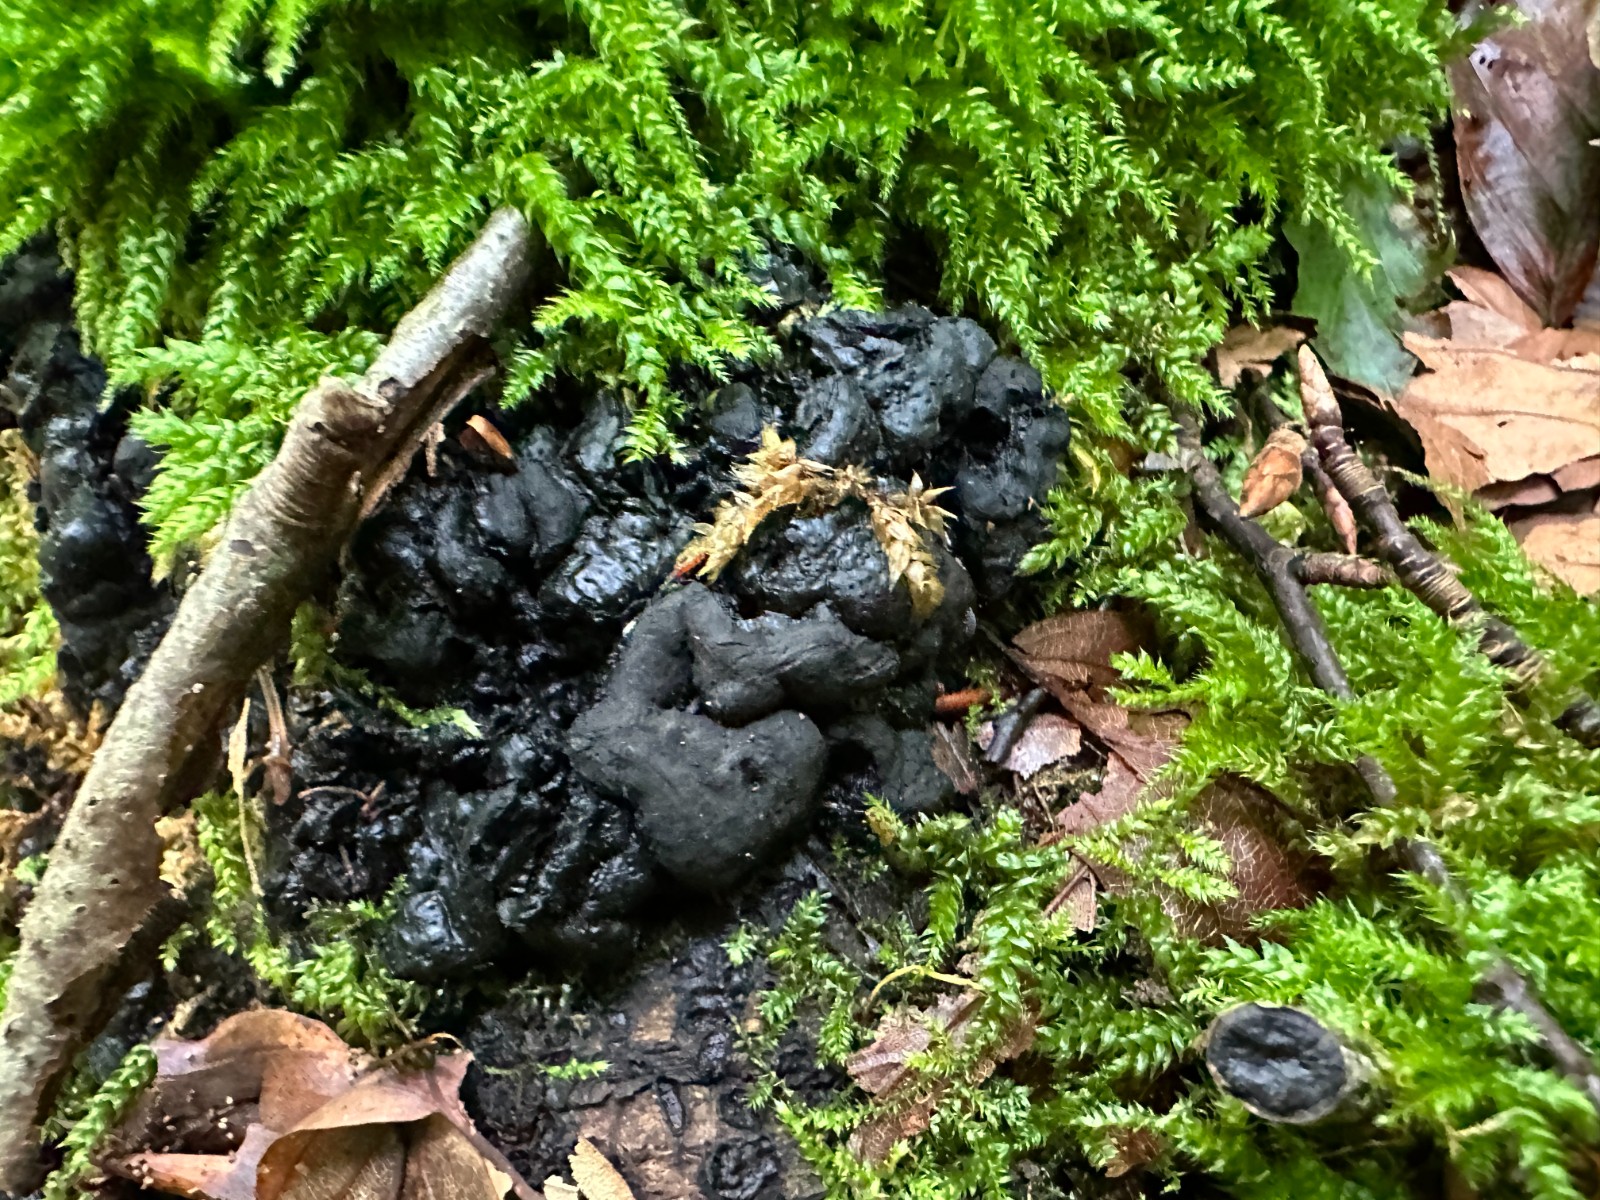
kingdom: Fungi
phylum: Ascomycota
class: Sordariomycetes
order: Xylariales
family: Xylariaceae
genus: Kretzschmaria
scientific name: Kretzschmaria deusta
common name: stor kulsvamp
